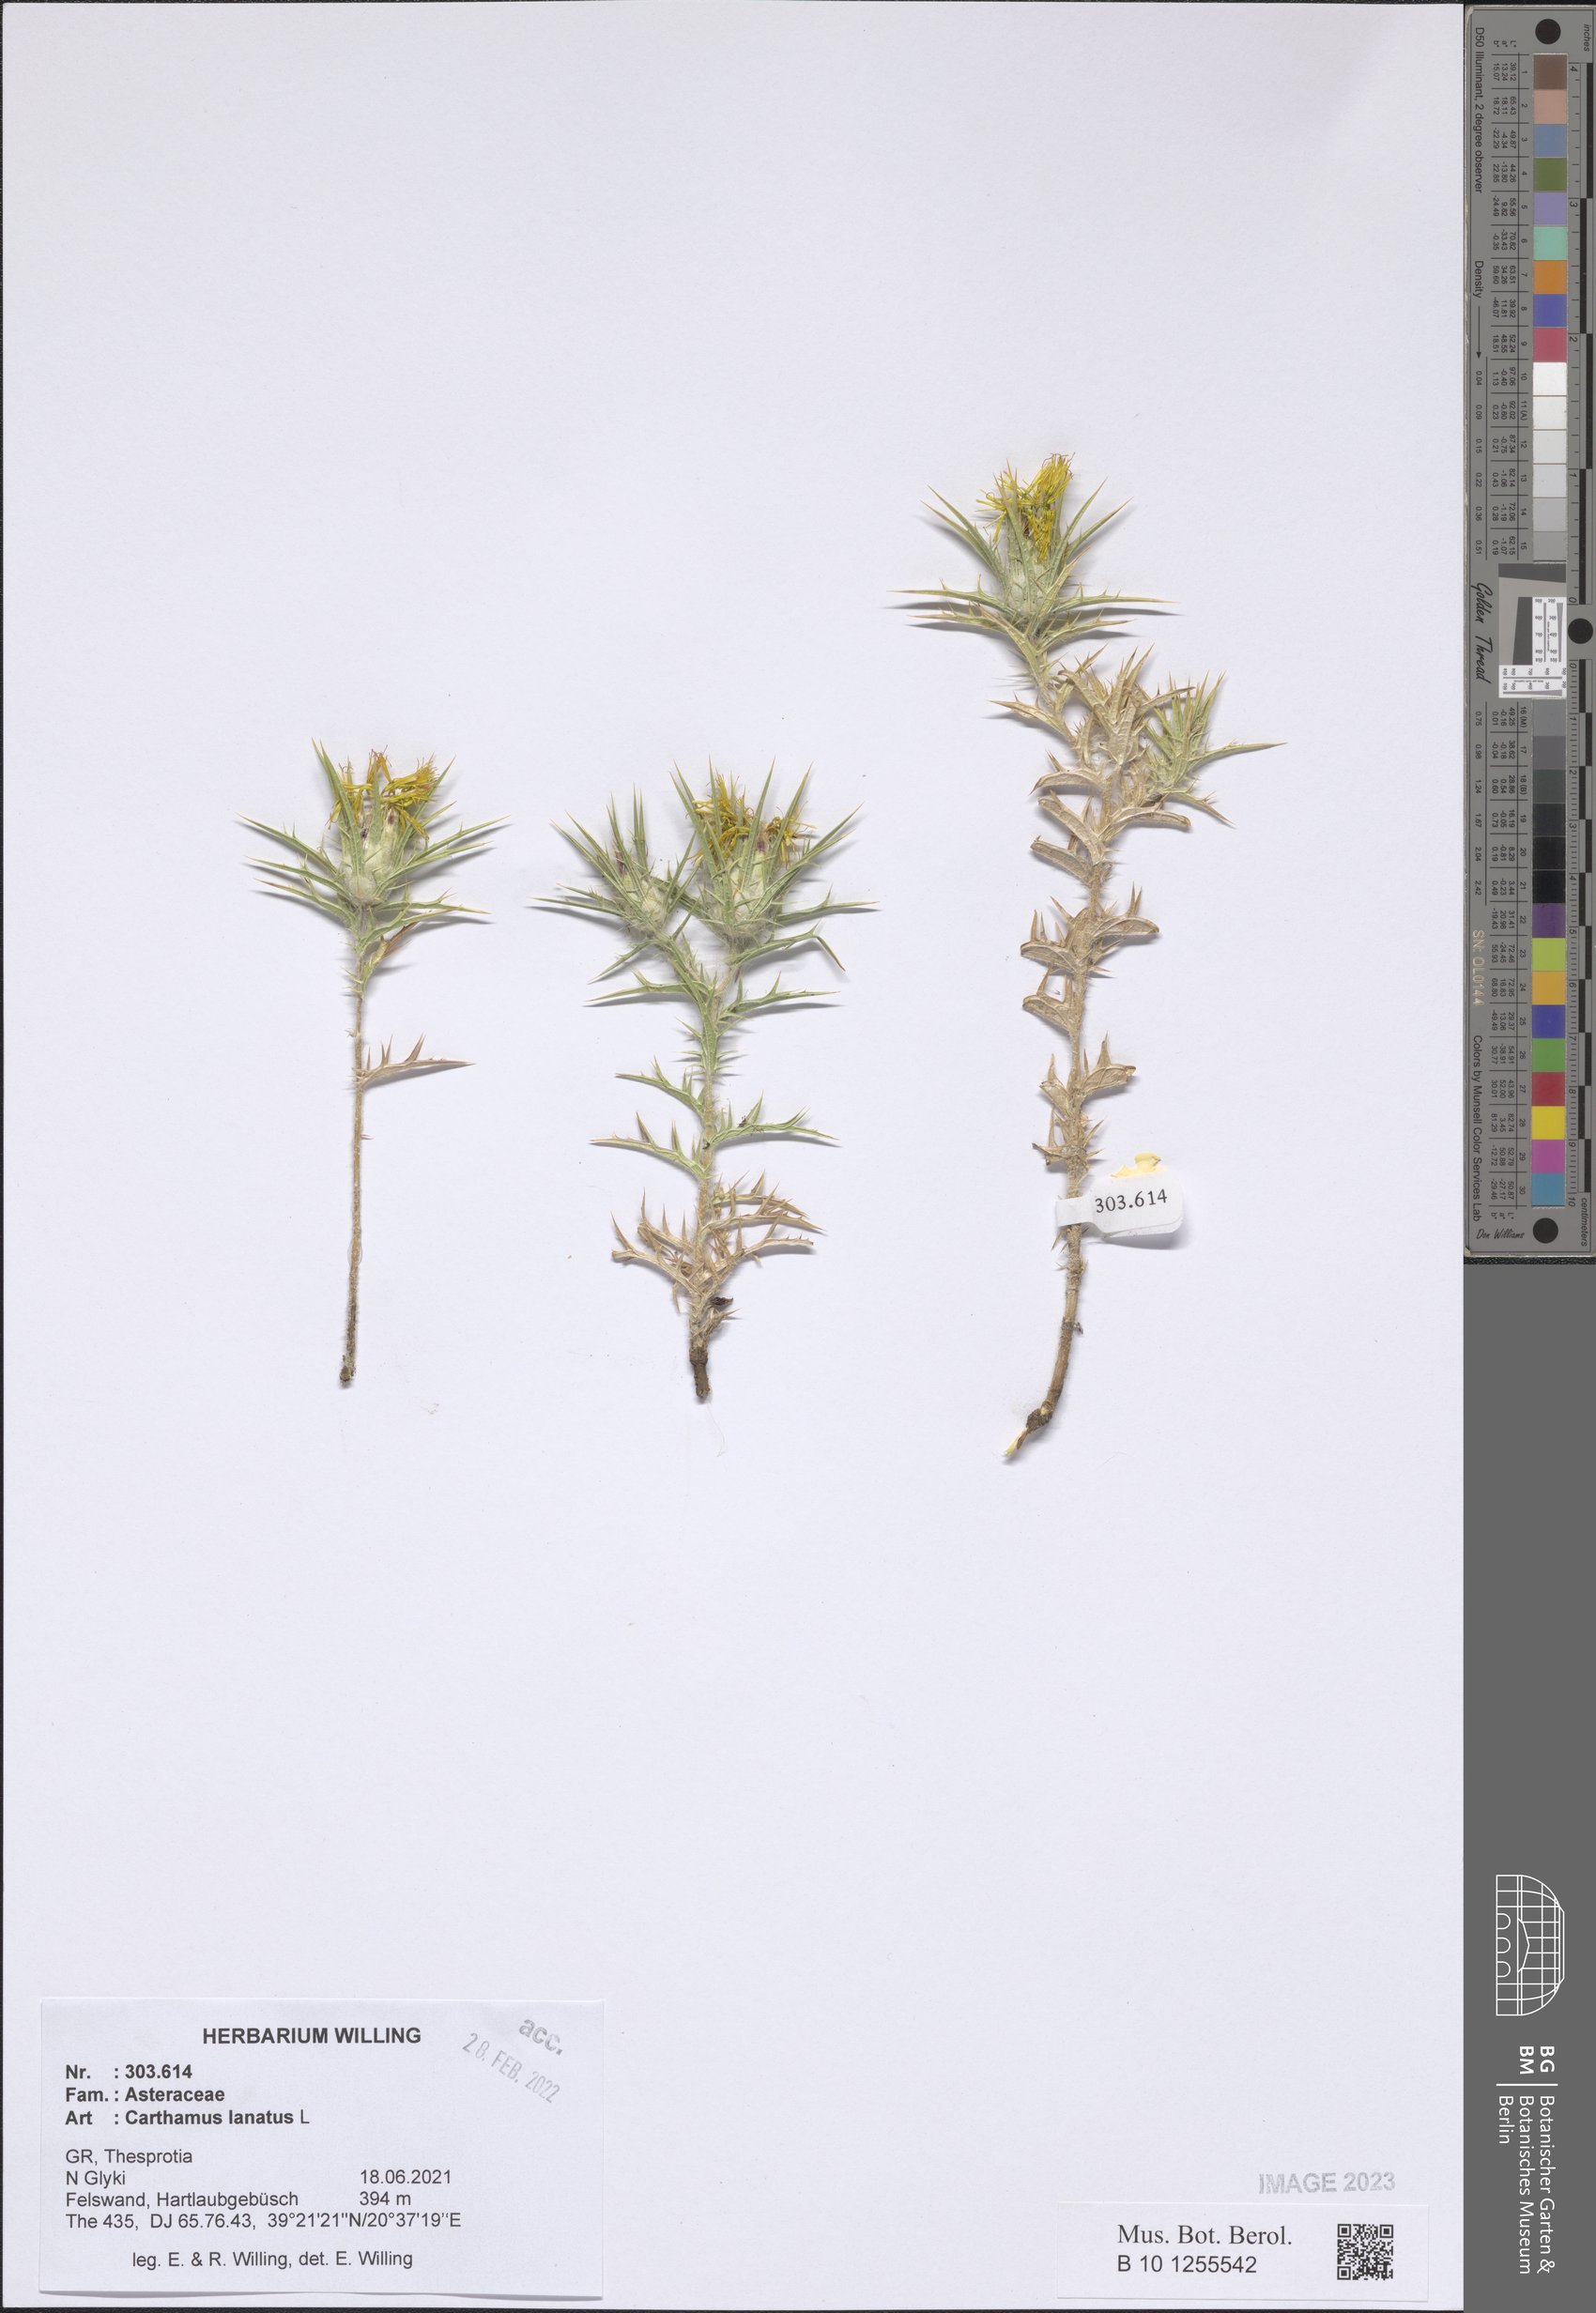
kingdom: Plantae
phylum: Tracheophyta
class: Magnoliopsida
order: Asterales
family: Asteraceae
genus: Carthamus
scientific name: Carthamus lanatus
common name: Downy safflower
